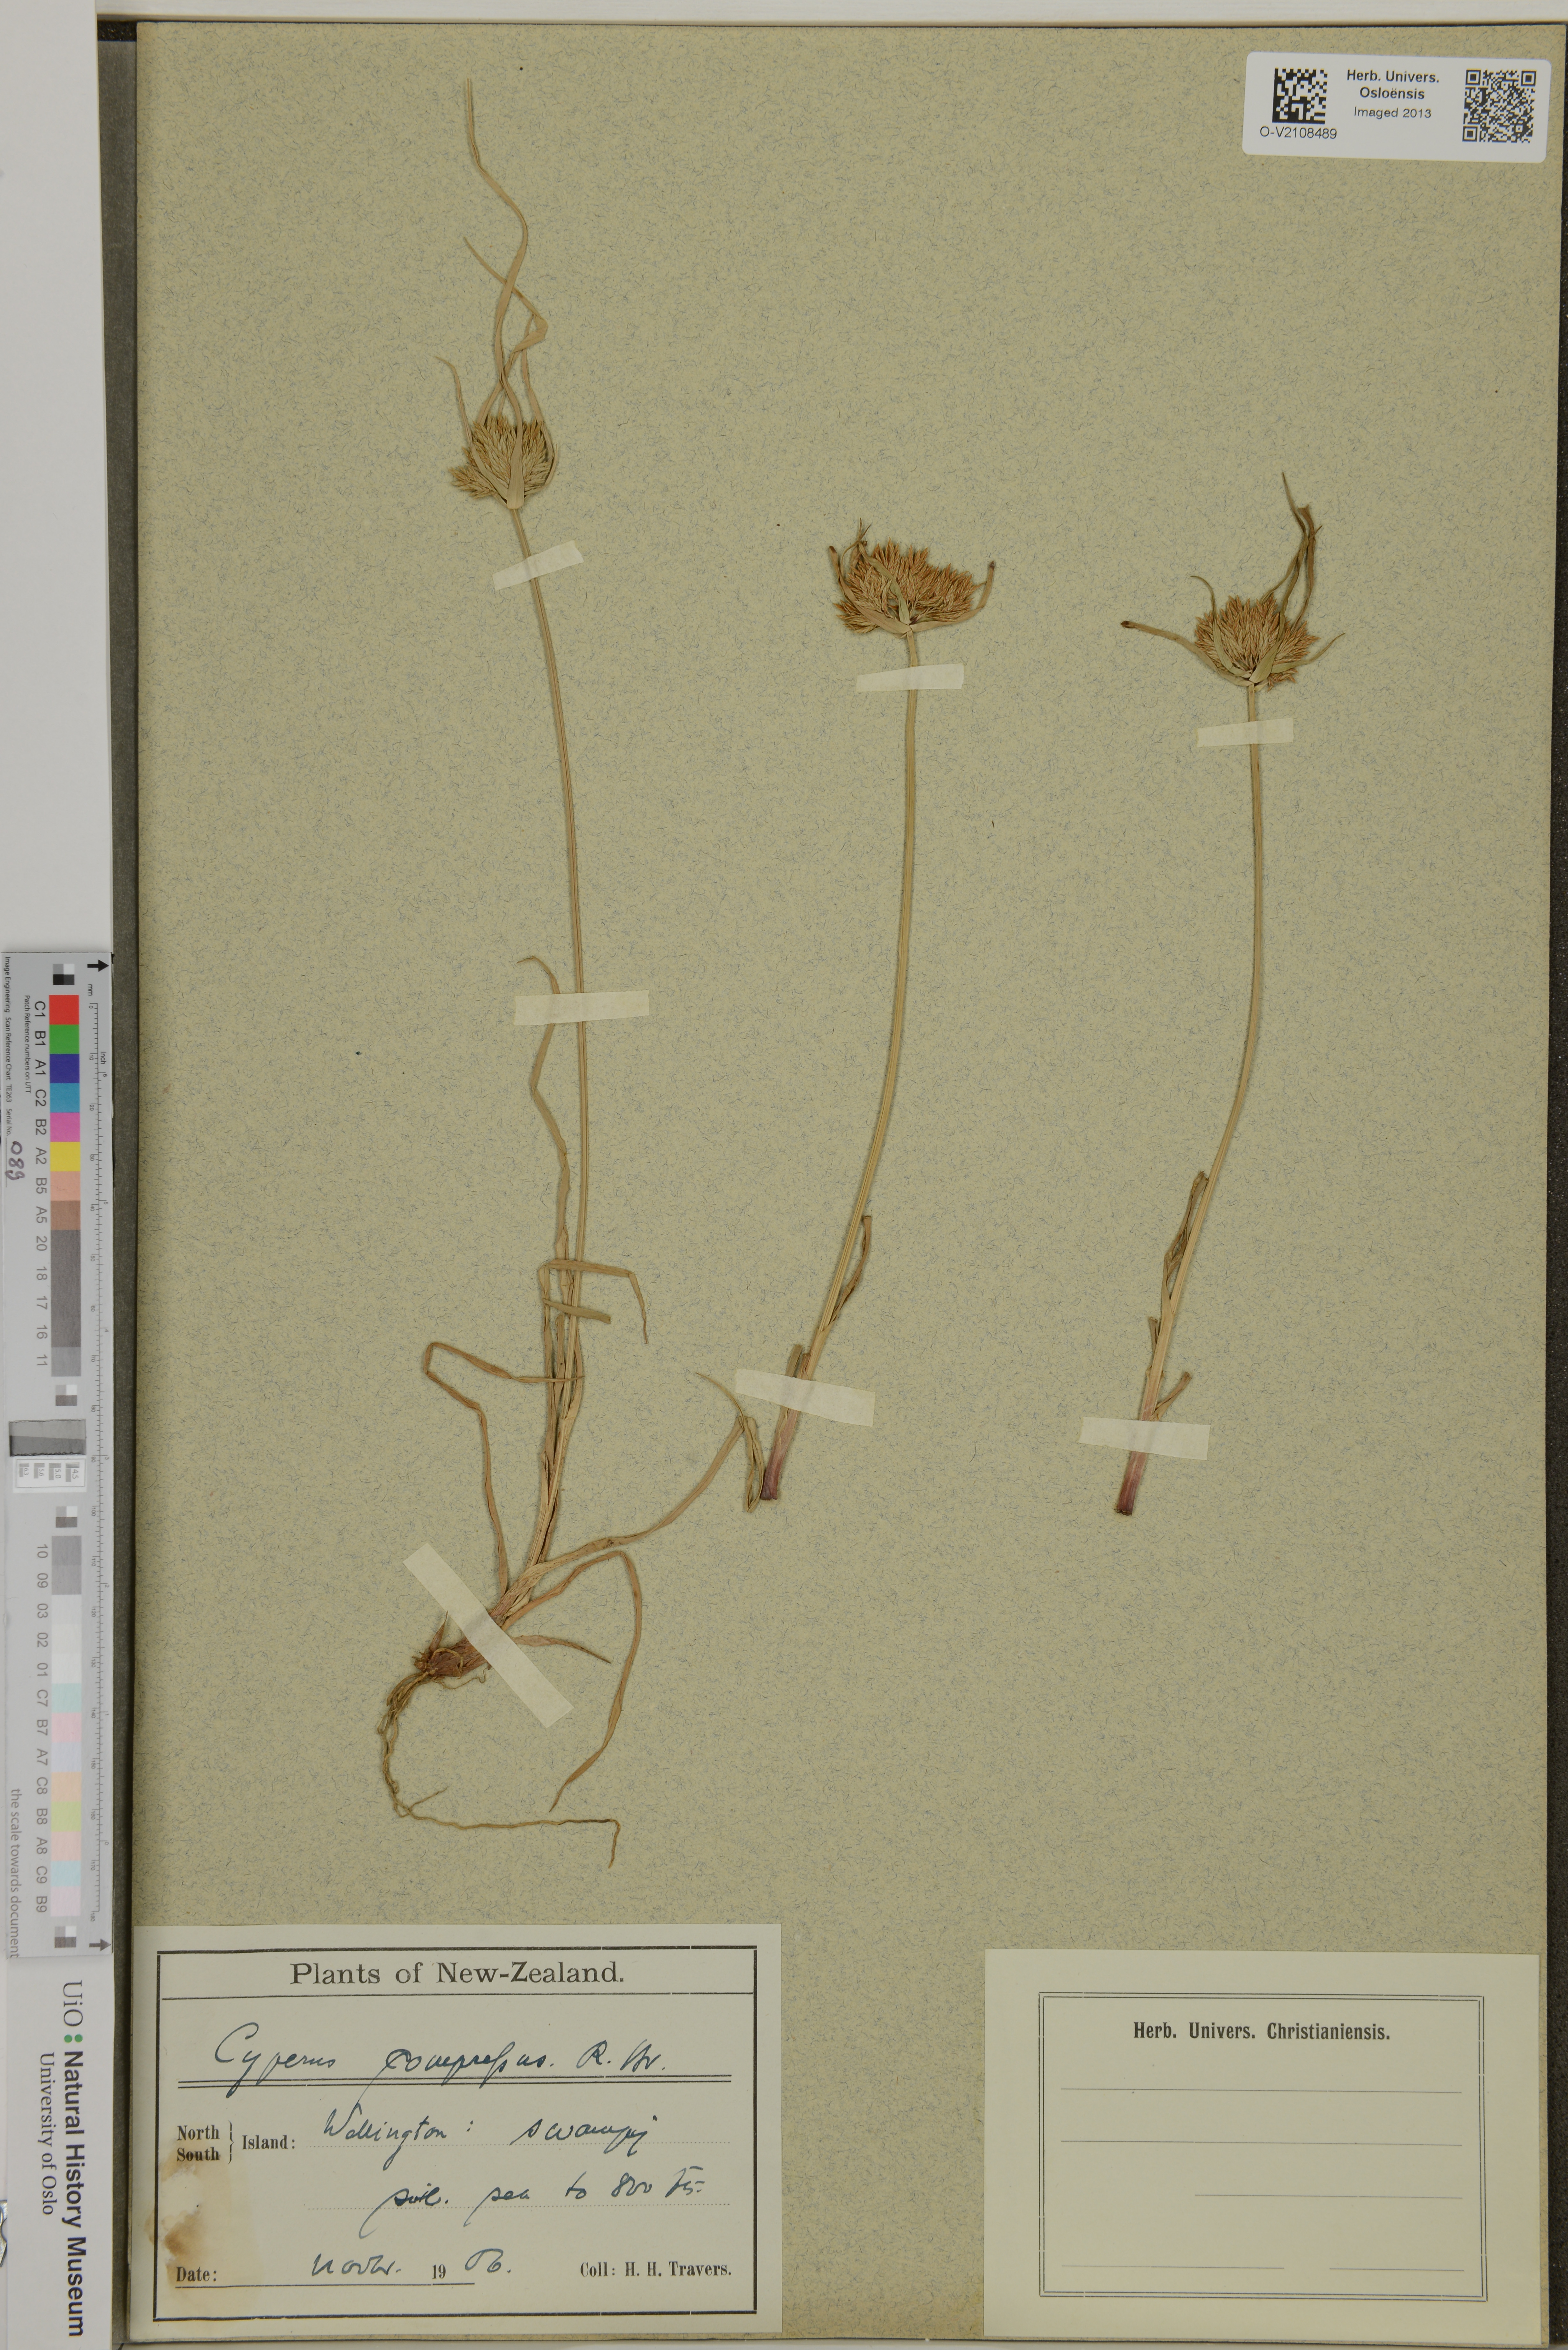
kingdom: Plantae
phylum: Tracheophyta
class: Liliopsida
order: Poales
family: Cyperaceae
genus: Cyperus
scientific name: Cyperus compressus
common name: Poorland flatsedge
